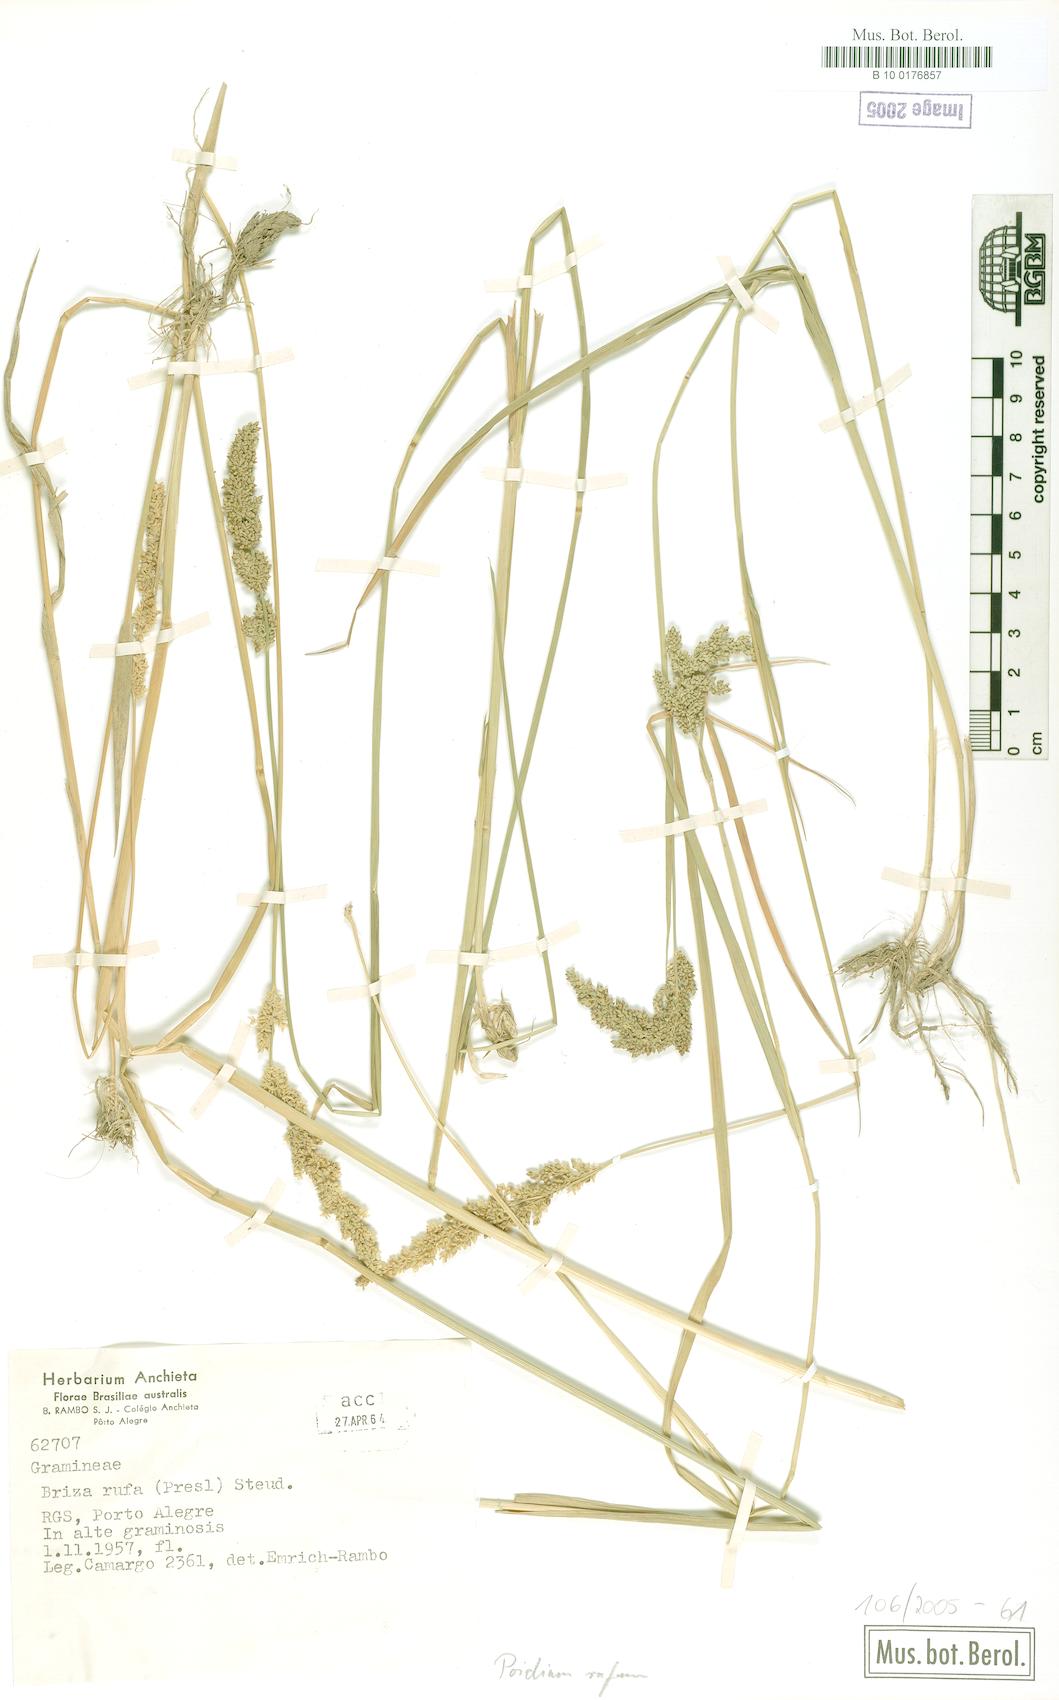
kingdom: Plantae
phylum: Tracheophyta
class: Liliopsida
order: Poales
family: Poaceae
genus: Lombardochloa
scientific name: Lombardochloa rufa
